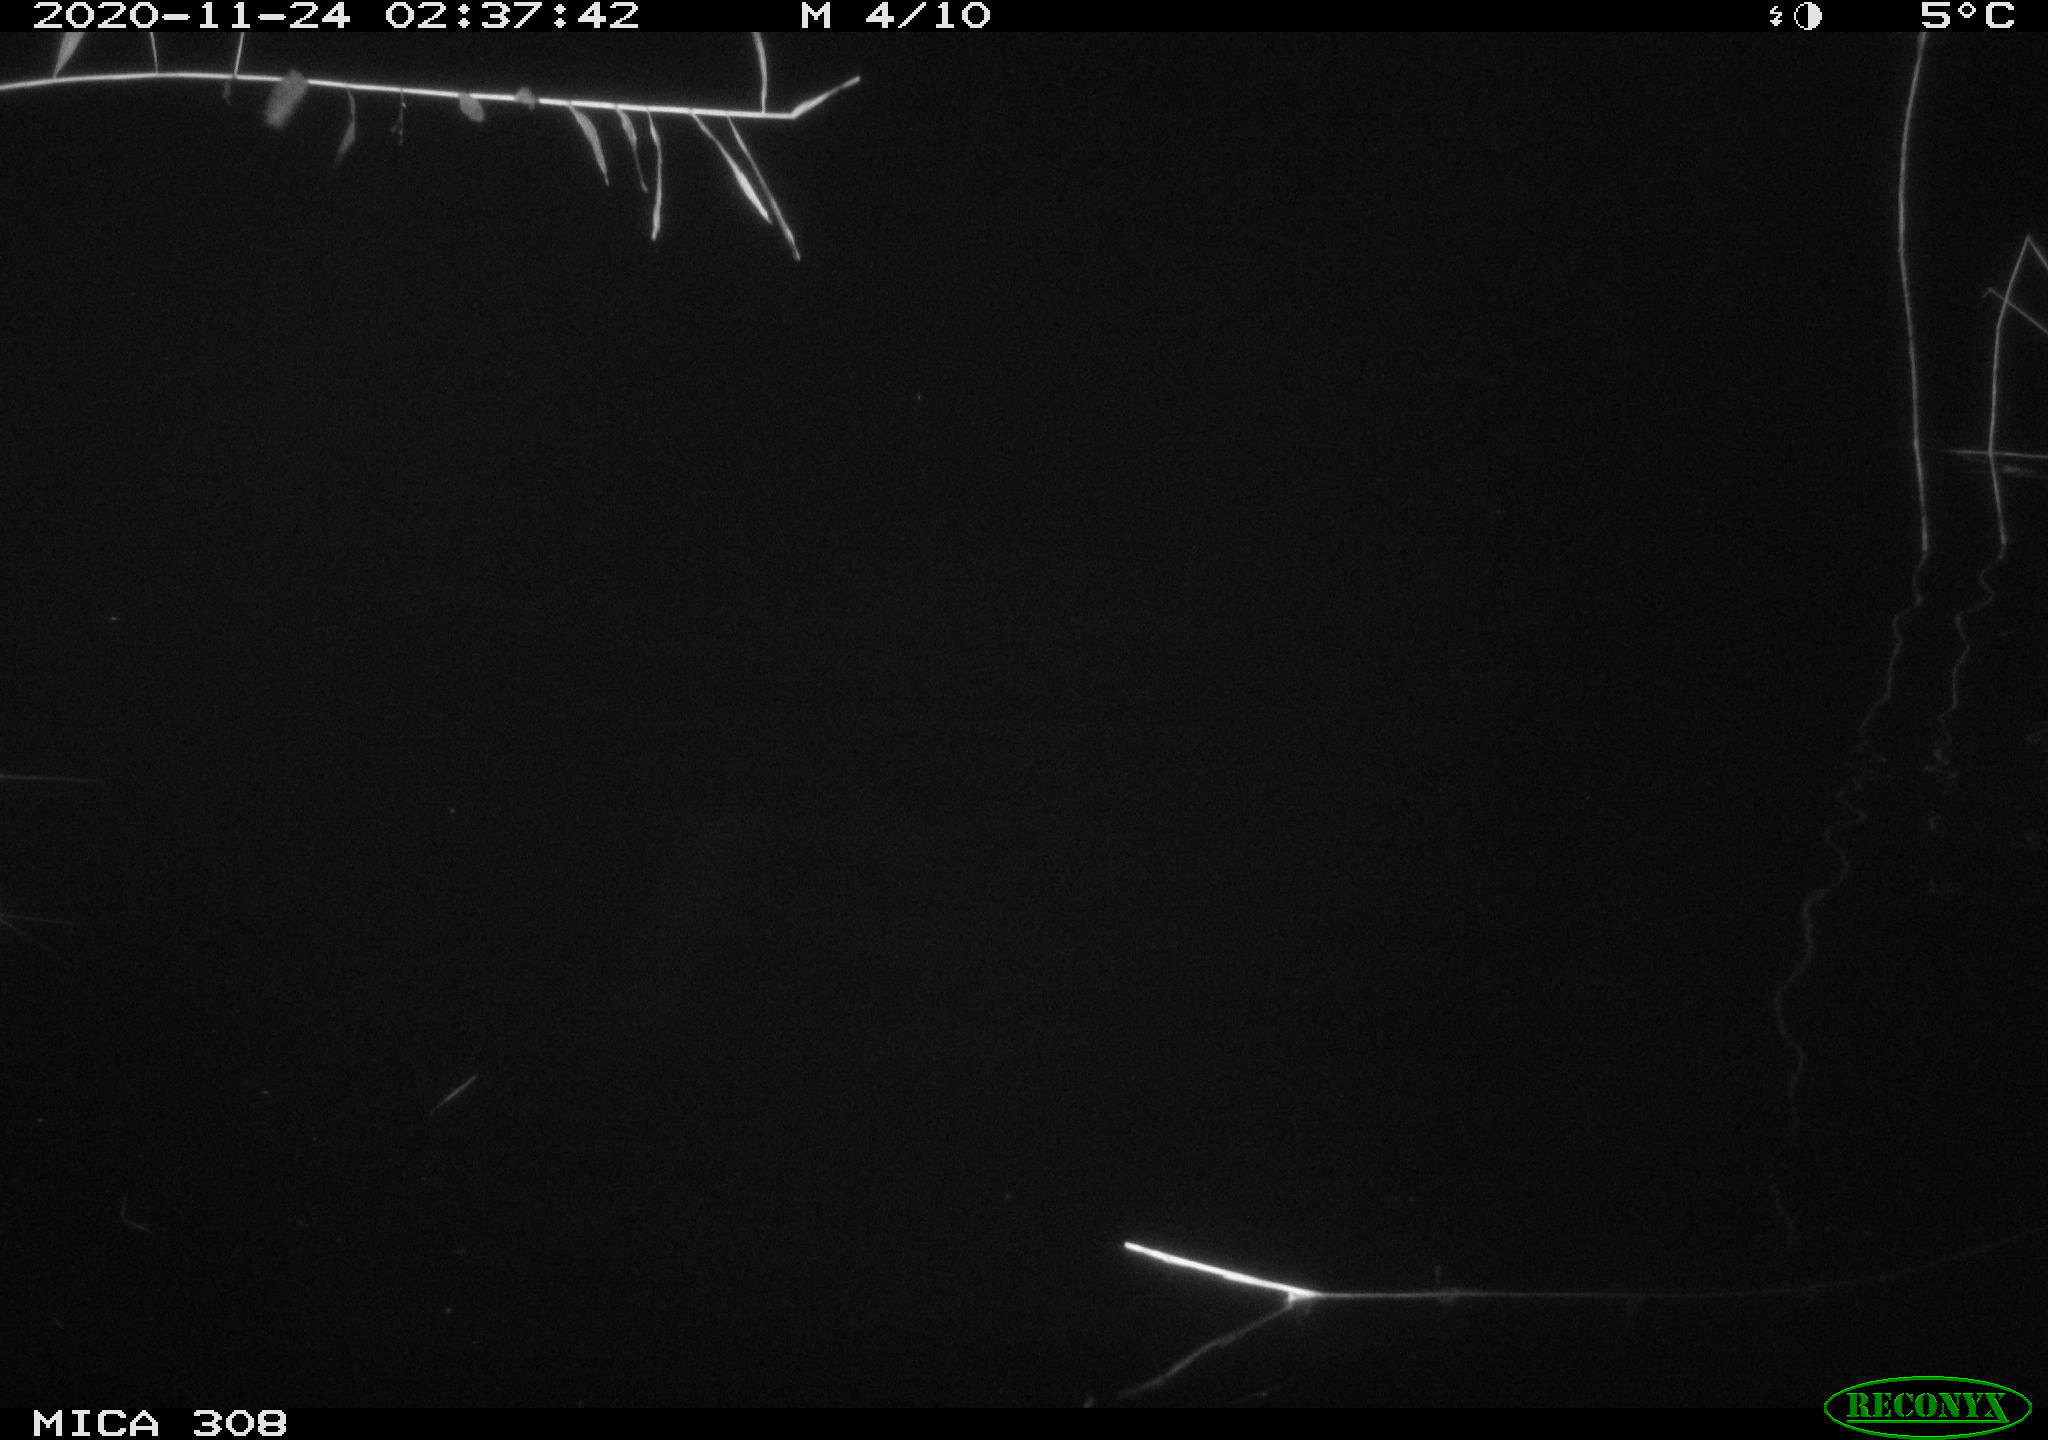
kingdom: Animalia
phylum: Chordata
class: Aves
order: Anseriformes
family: Anatidae
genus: Anas
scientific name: Anas platyrhynchos
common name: Mallard
